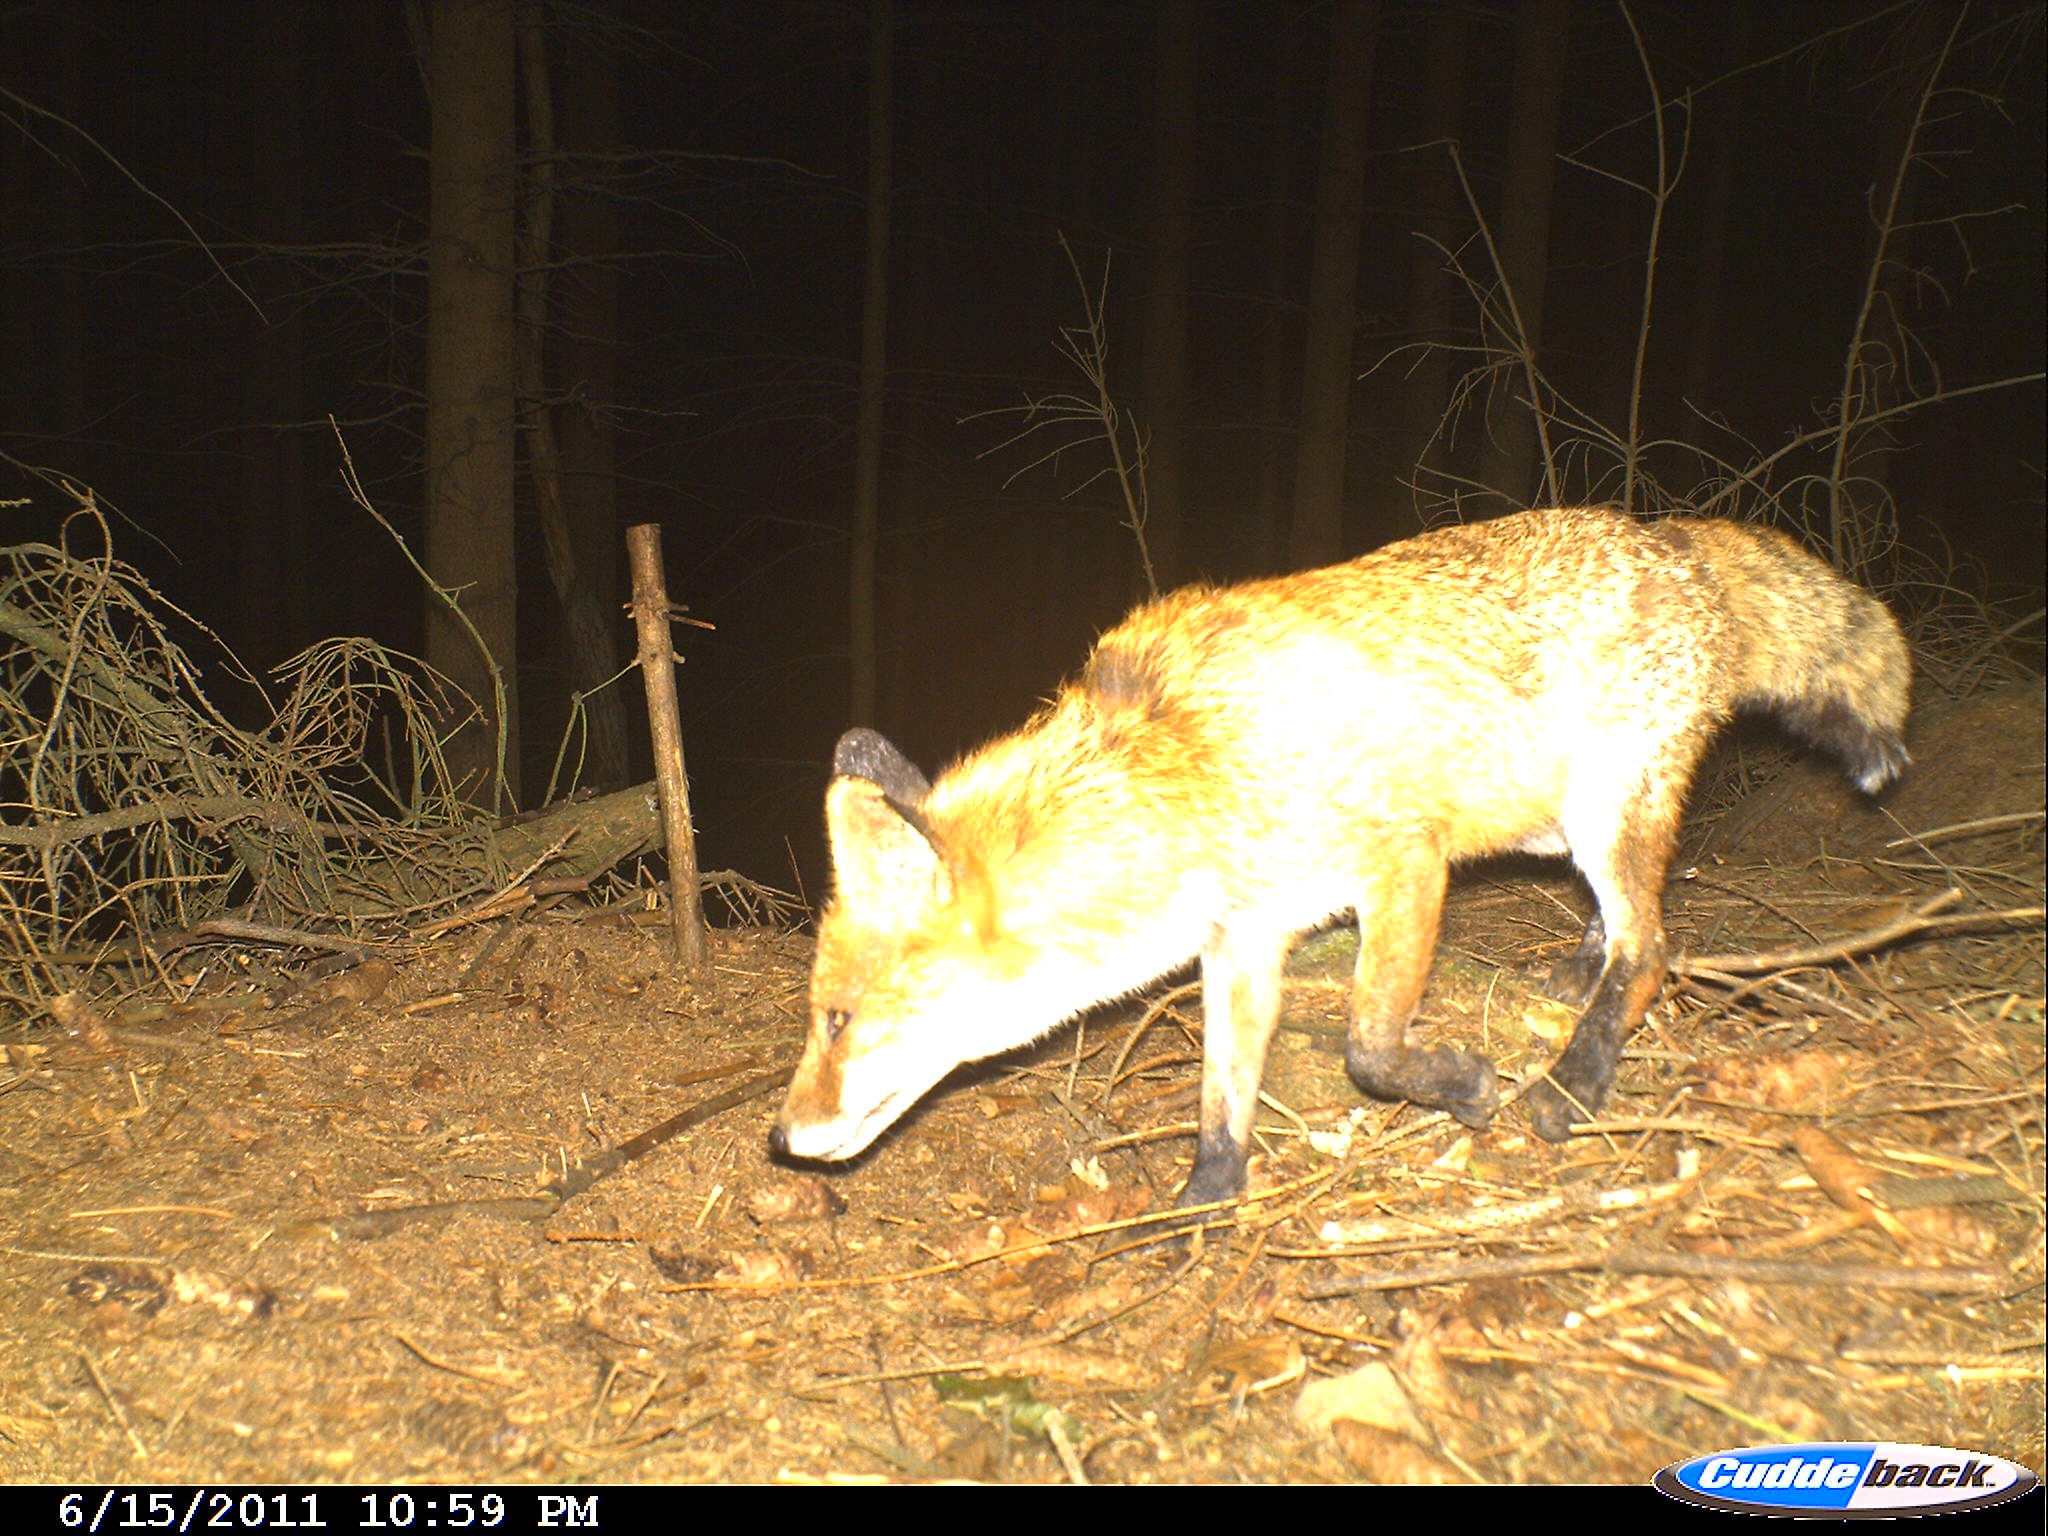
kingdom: Animalia
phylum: Chordata
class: Mammalia
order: Carnivora
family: Canidae
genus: Vulpes
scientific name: Vulpes vulpes
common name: Red fox
